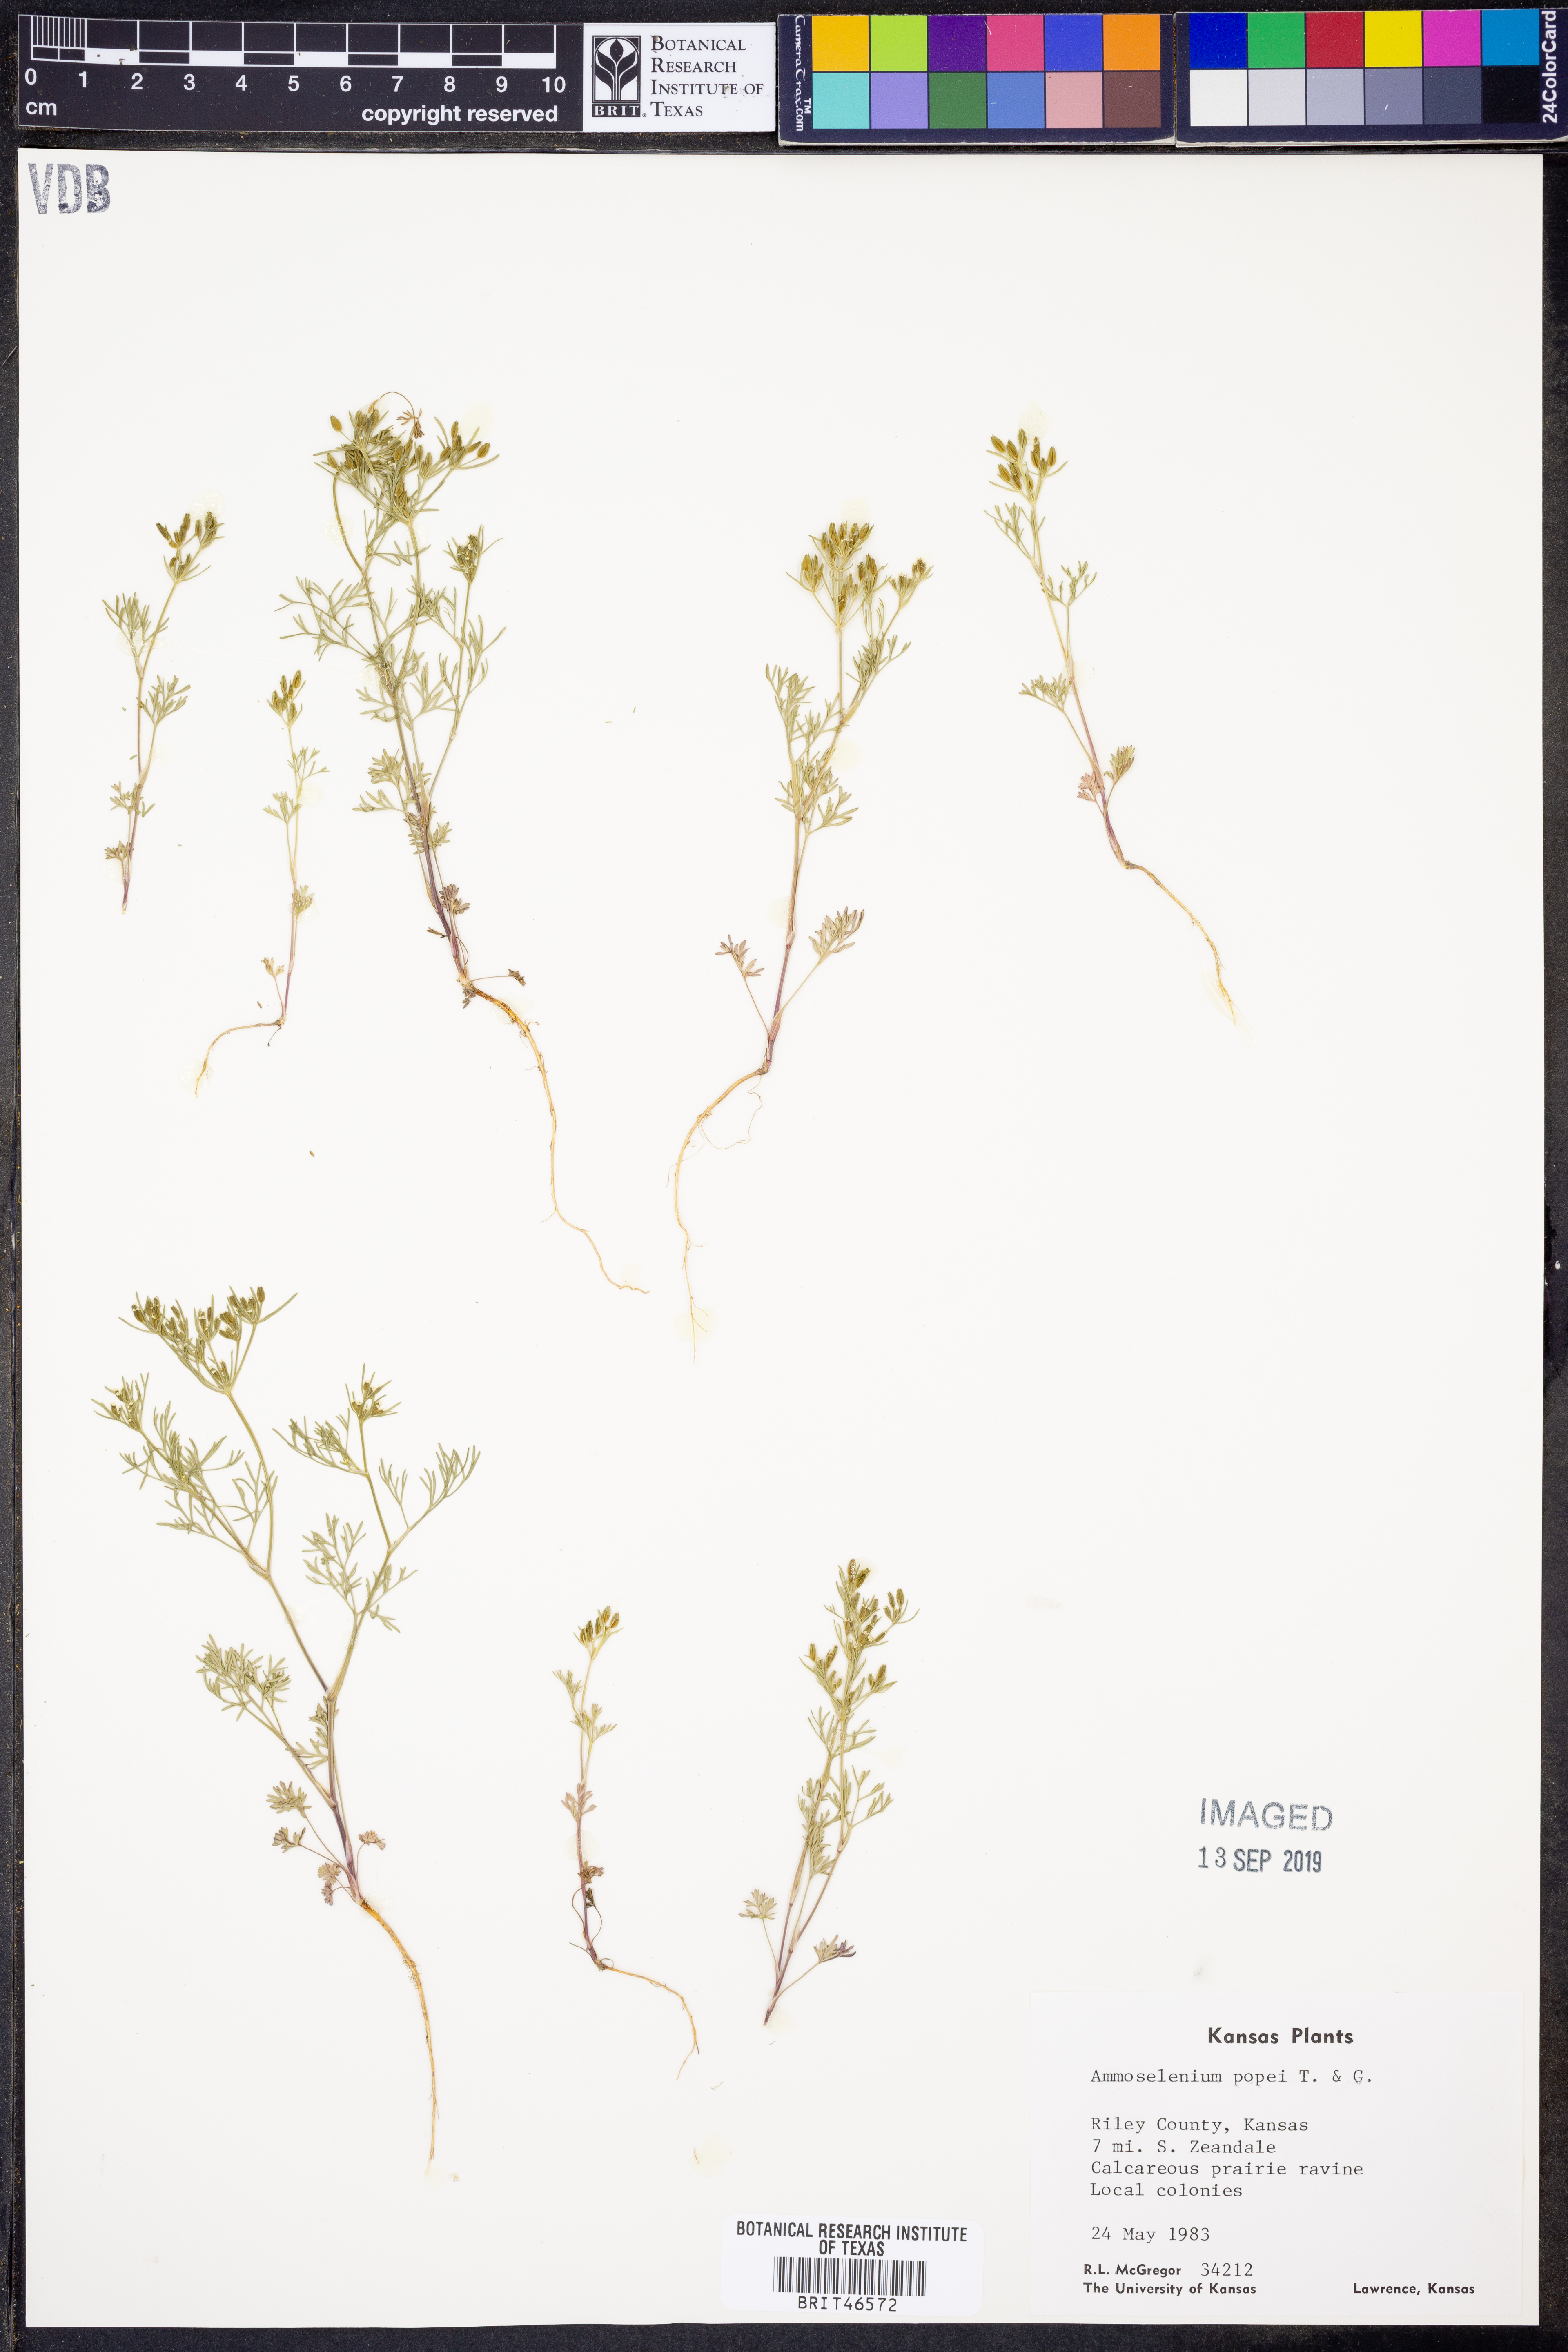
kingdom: Plantae
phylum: Tracheophyta
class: Magnoliopsida
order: Apiales
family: Apiaceae
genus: Ammoselinum
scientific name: Ammoselinum popei
